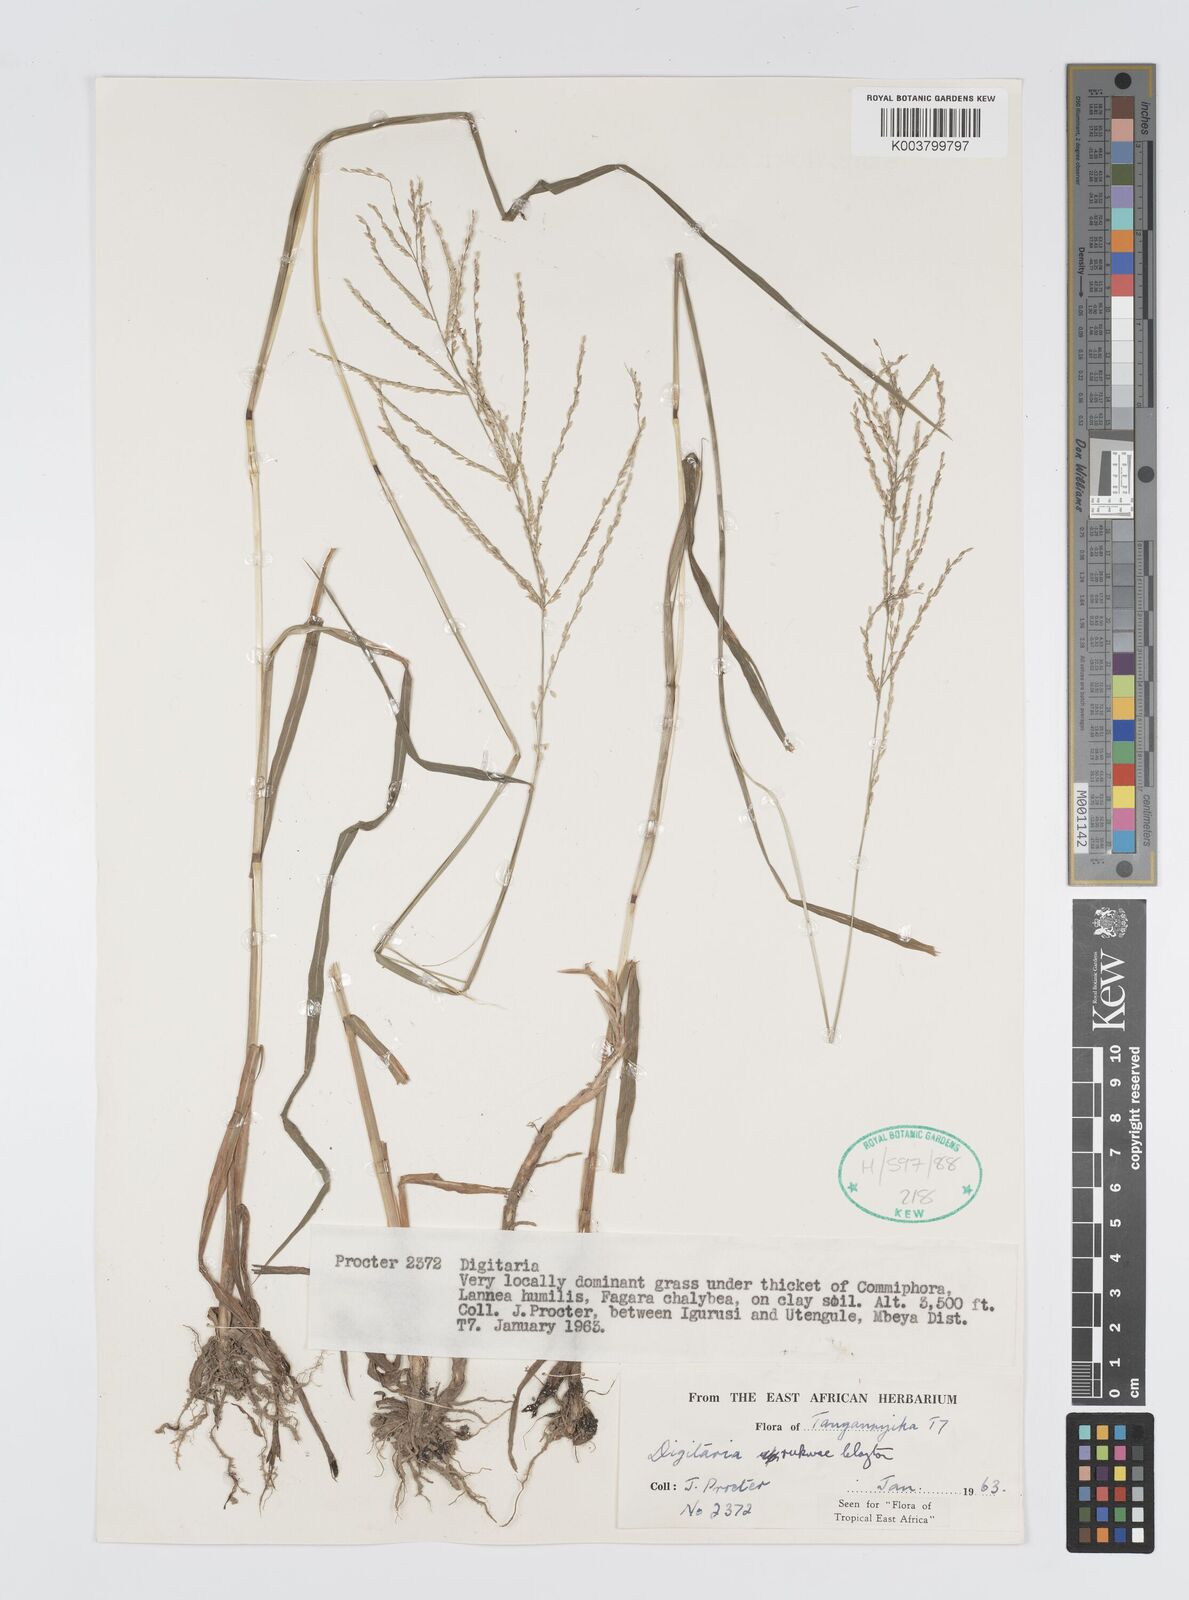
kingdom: Plantae
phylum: Tracheophyta
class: Liliopsida
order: Poales
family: Poaceae
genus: Digitaria
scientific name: Digitaria rukwae
